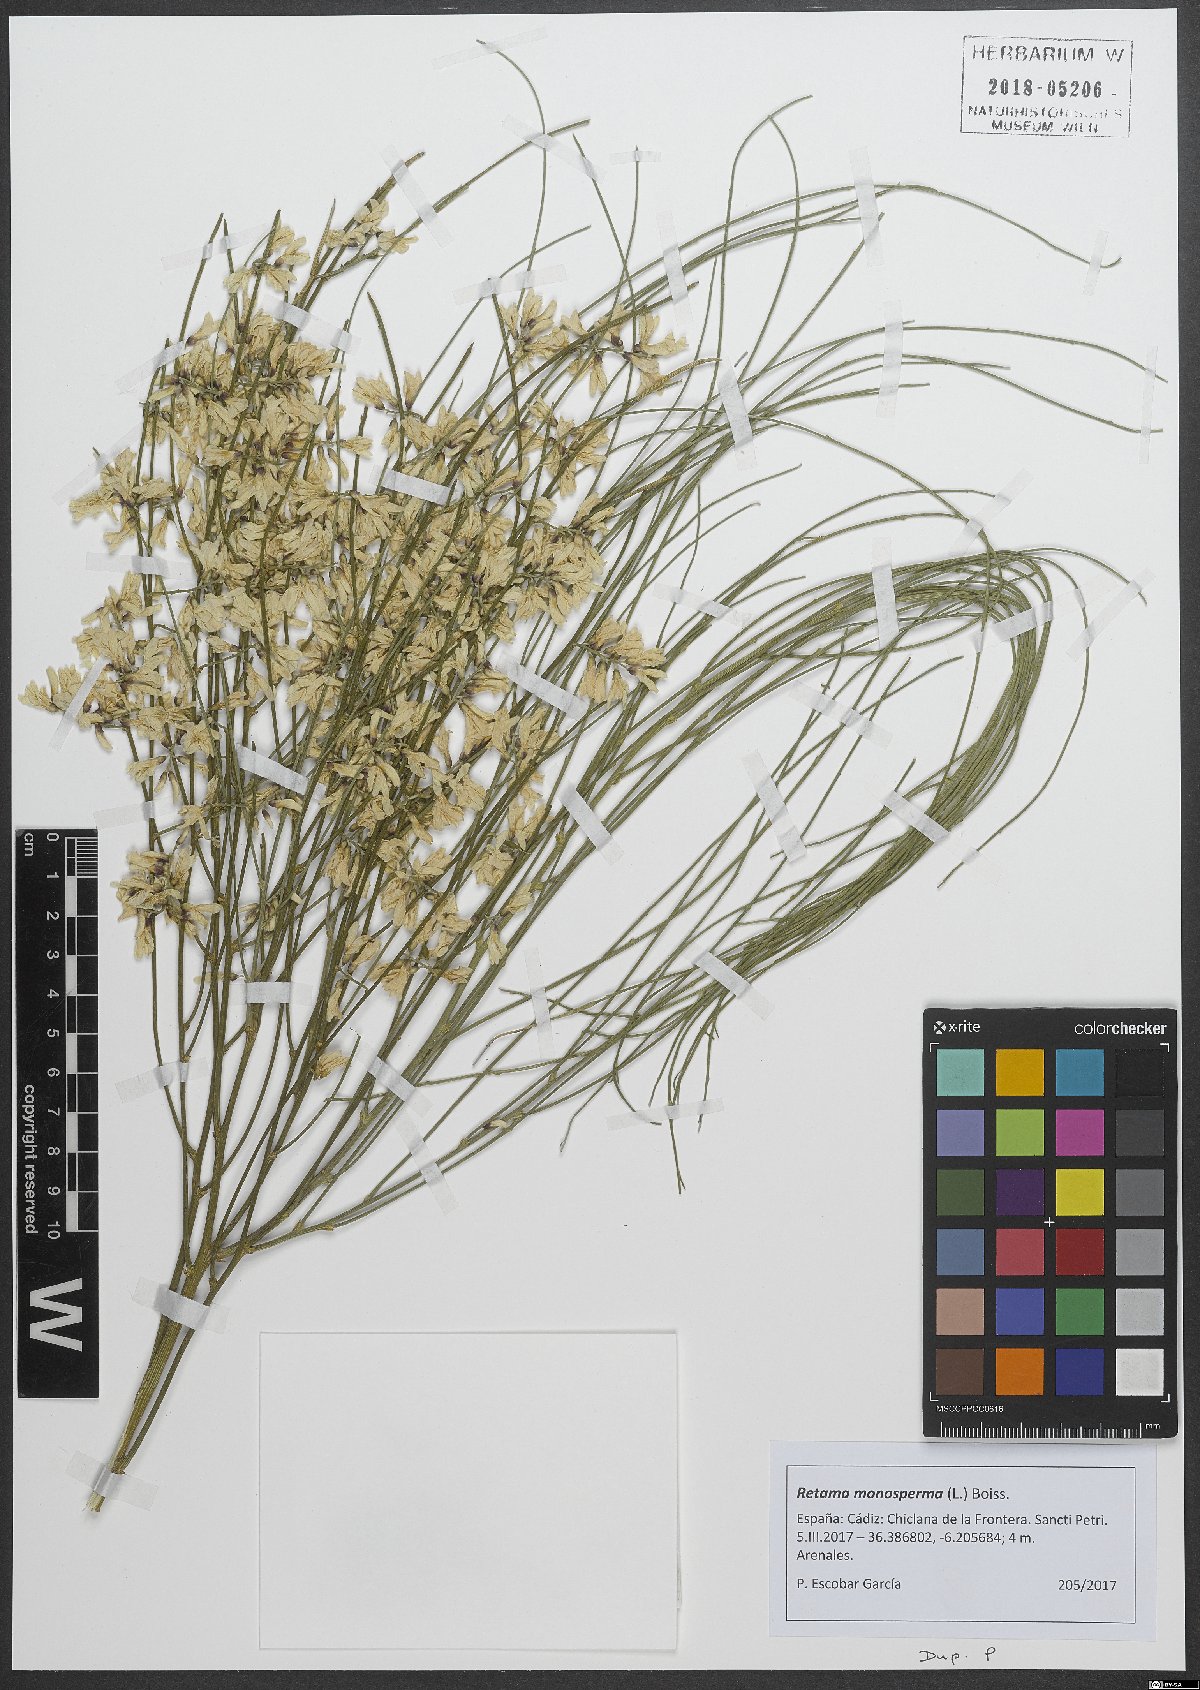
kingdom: Plantae
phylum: Tracheophyta
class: Magnoliopsida
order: Fabales
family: Fabaceae
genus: Retama
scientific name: Retama monosperma
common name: Bridal broom
